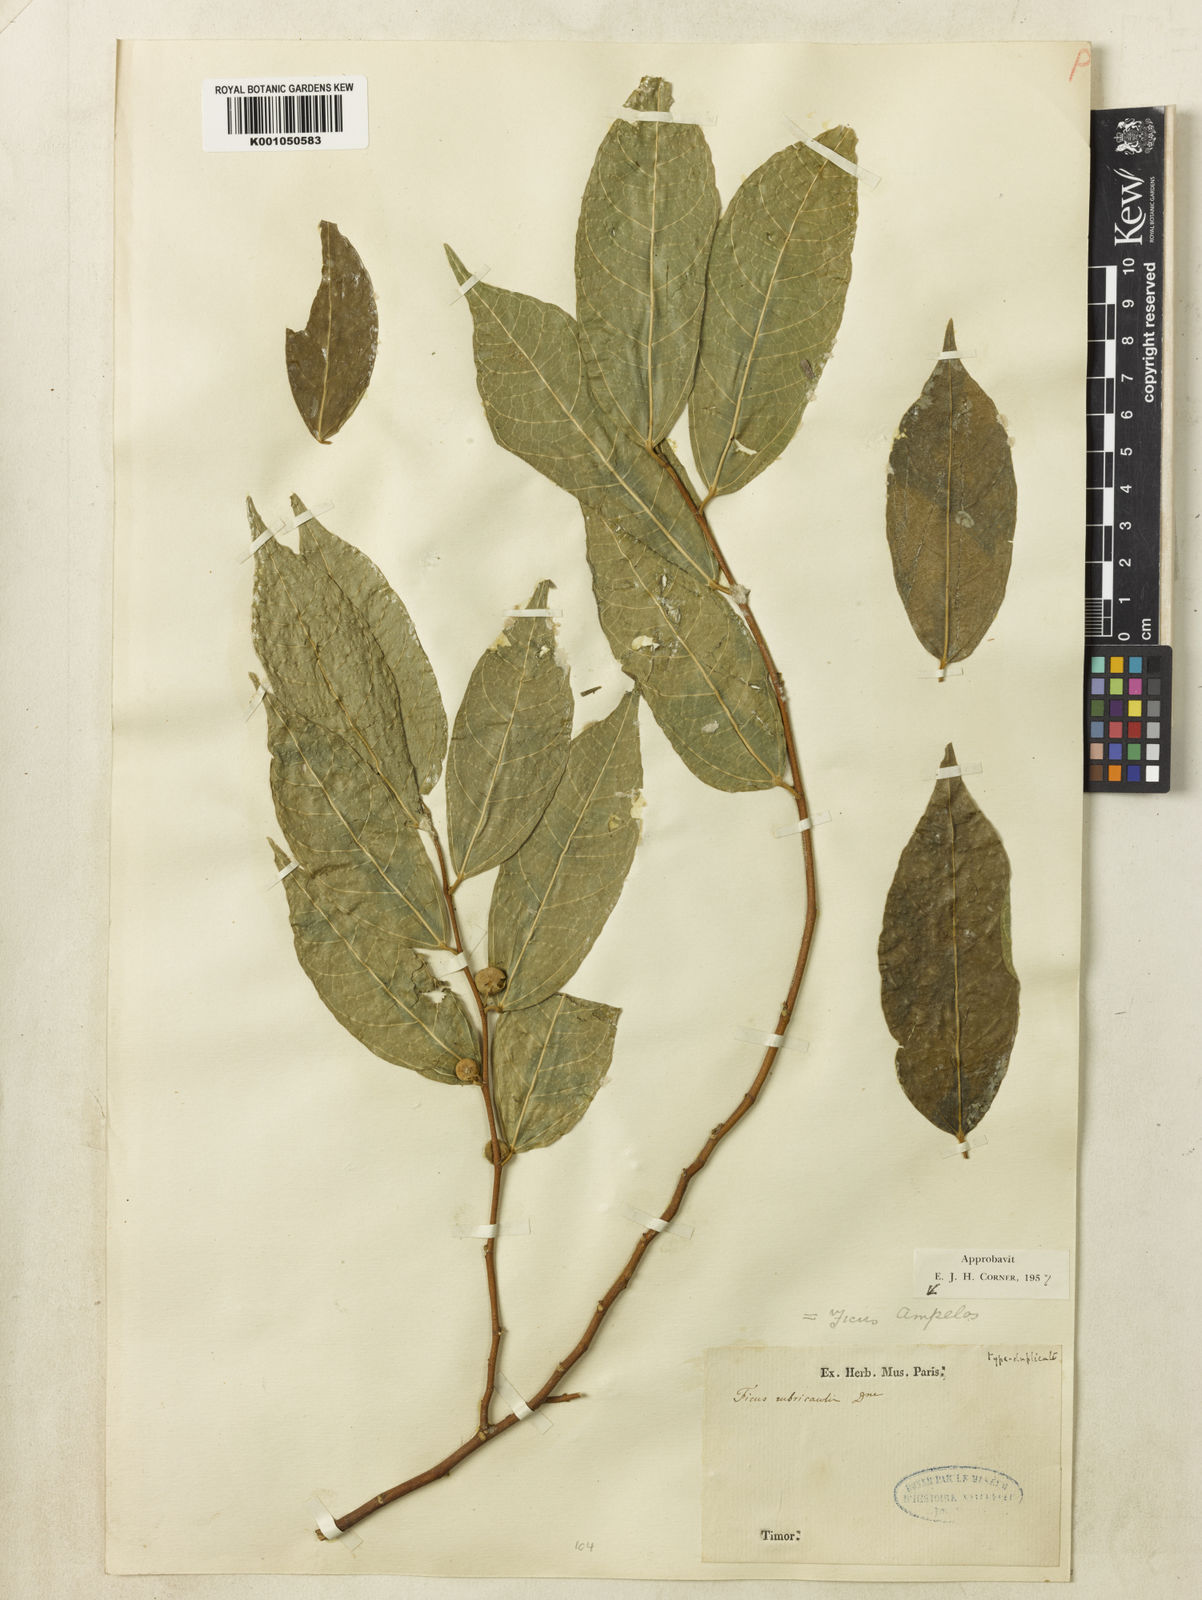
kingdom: Plantae
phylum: Tracheophyta
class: Magnoliopsida
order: Rosales
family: Moraceae
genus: Ficus
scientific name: Ficus
